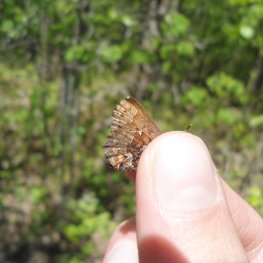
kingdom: Animalia
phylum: Arthropoda
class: Insecta
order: Lepidoptera
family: Lycaenidae
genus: Incisalia
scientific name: Incisalia niphon
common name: Eastern Pine Elfin
